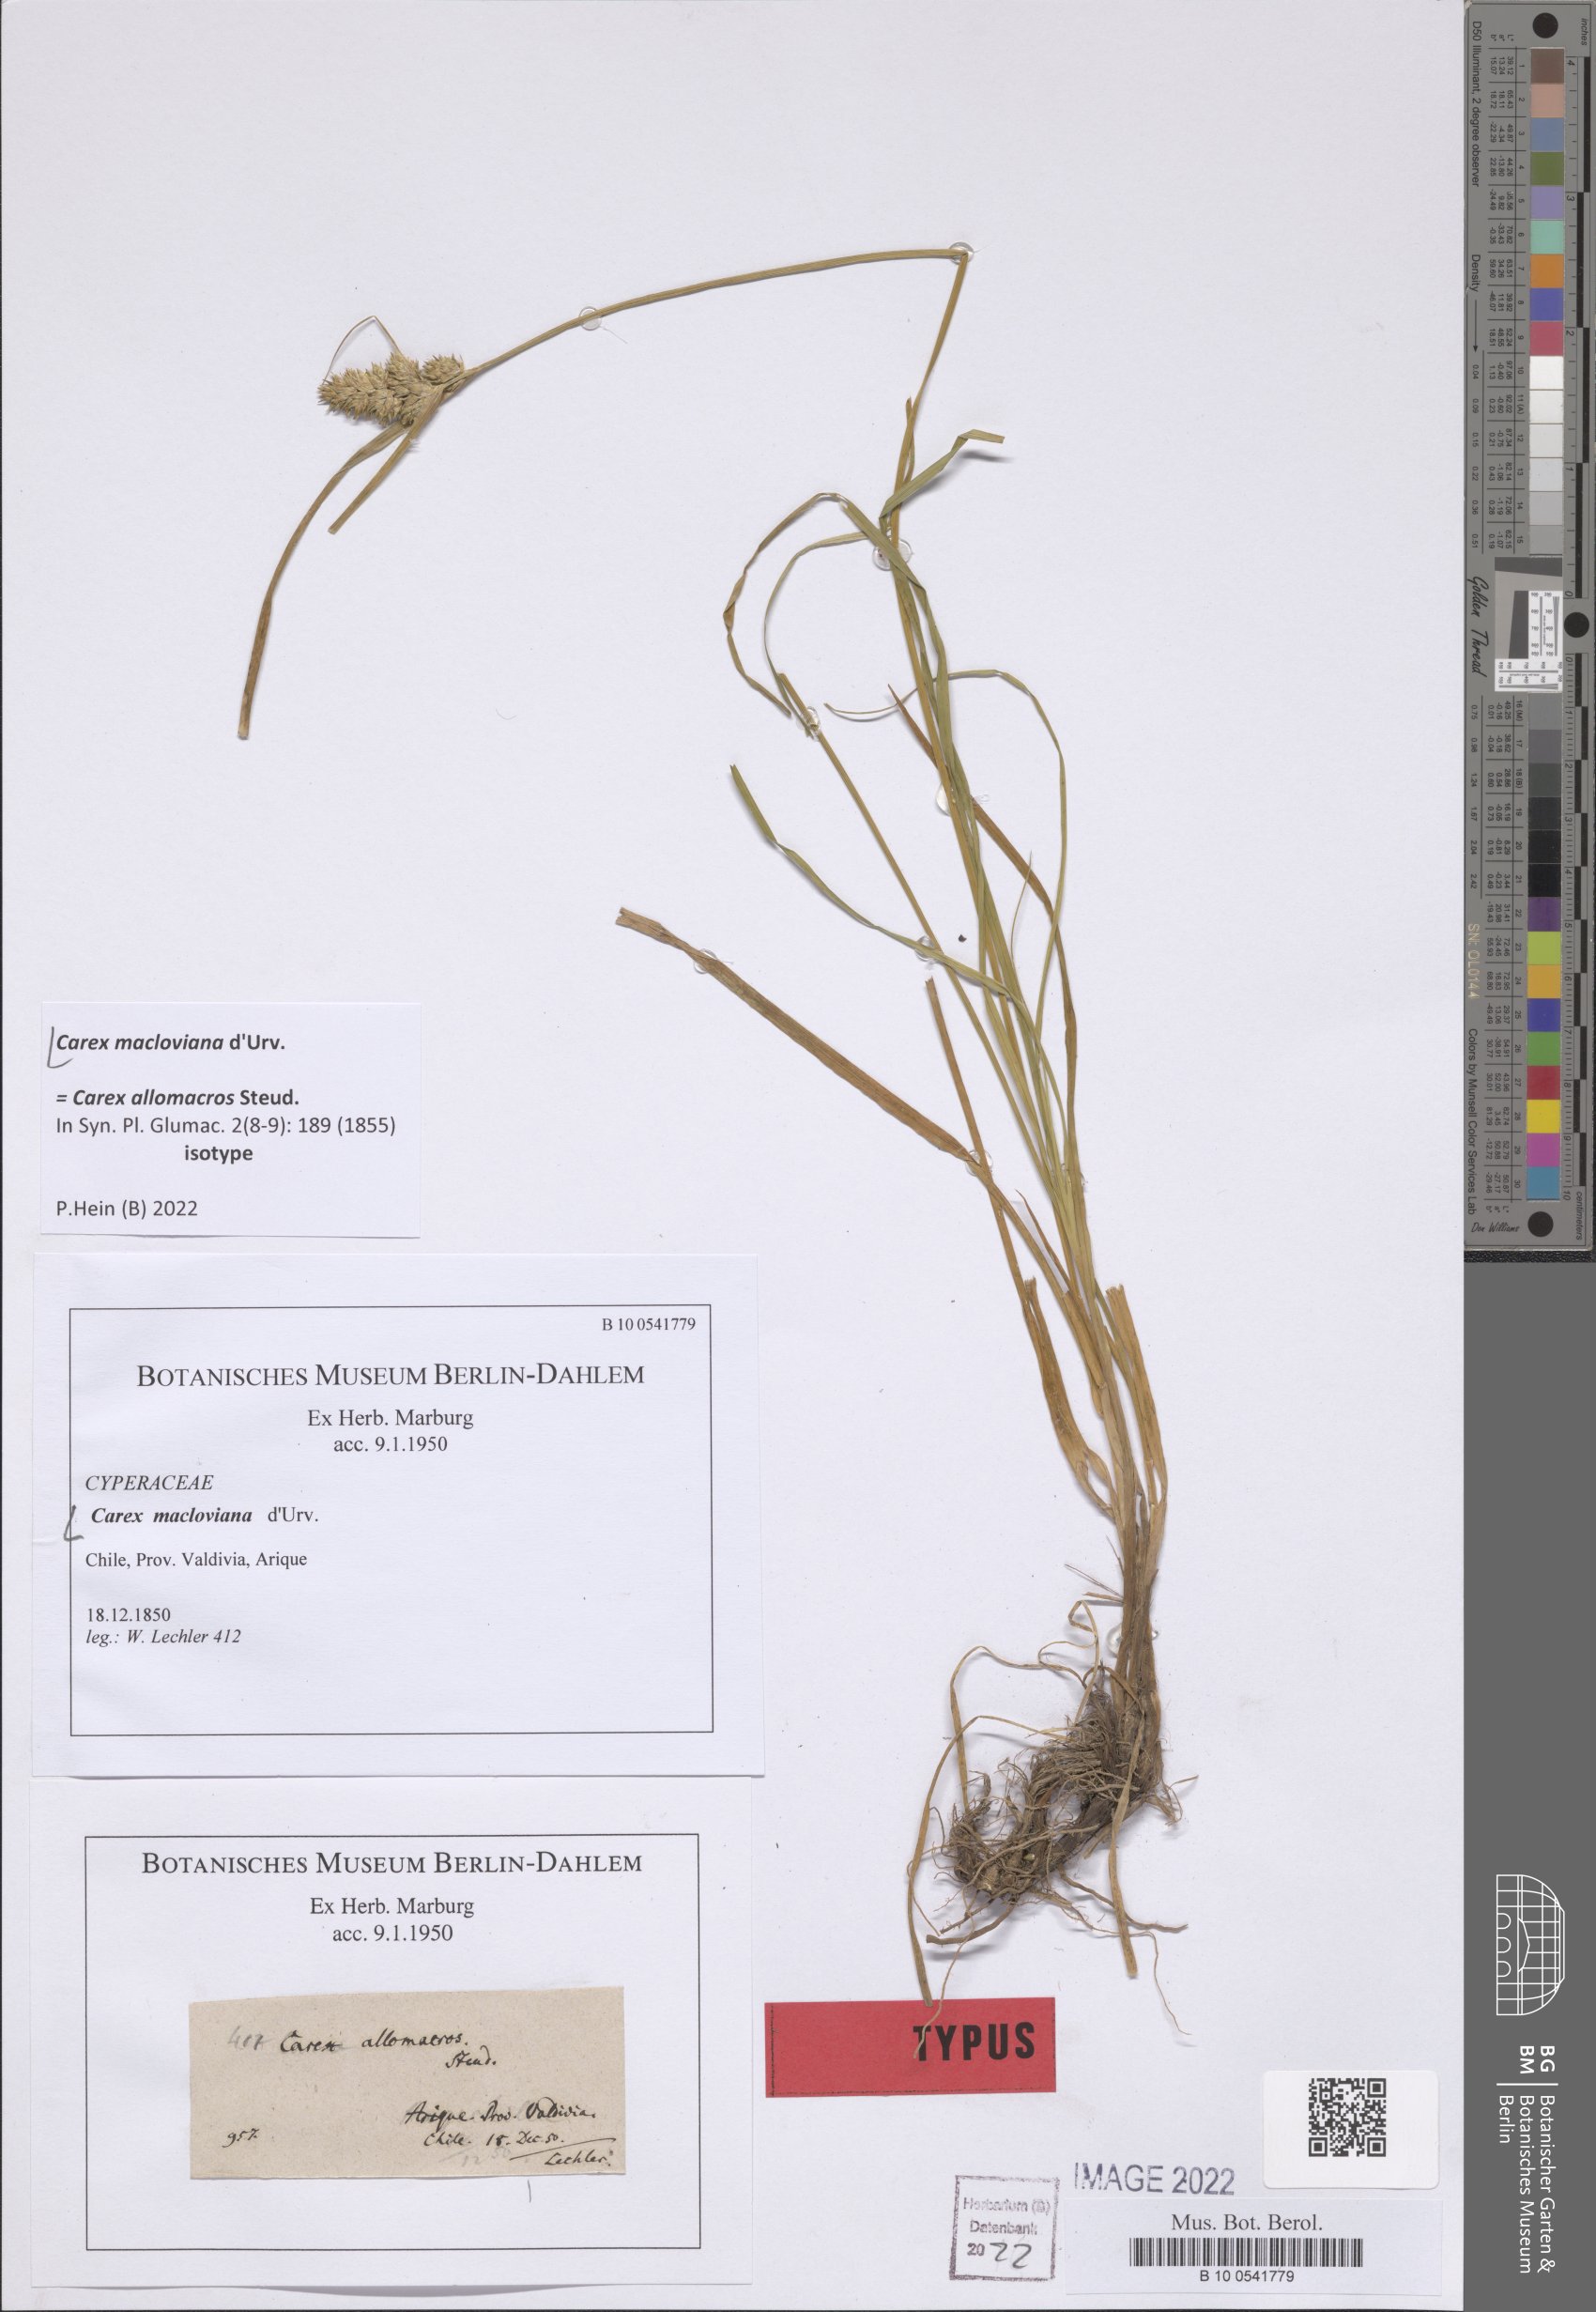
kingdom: Plantae
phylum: Tracheophyta
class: Liliopsida
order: Poales
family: Cyperaceae
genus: Carex
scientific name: Carex macloviana
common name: Falkland island sedge
